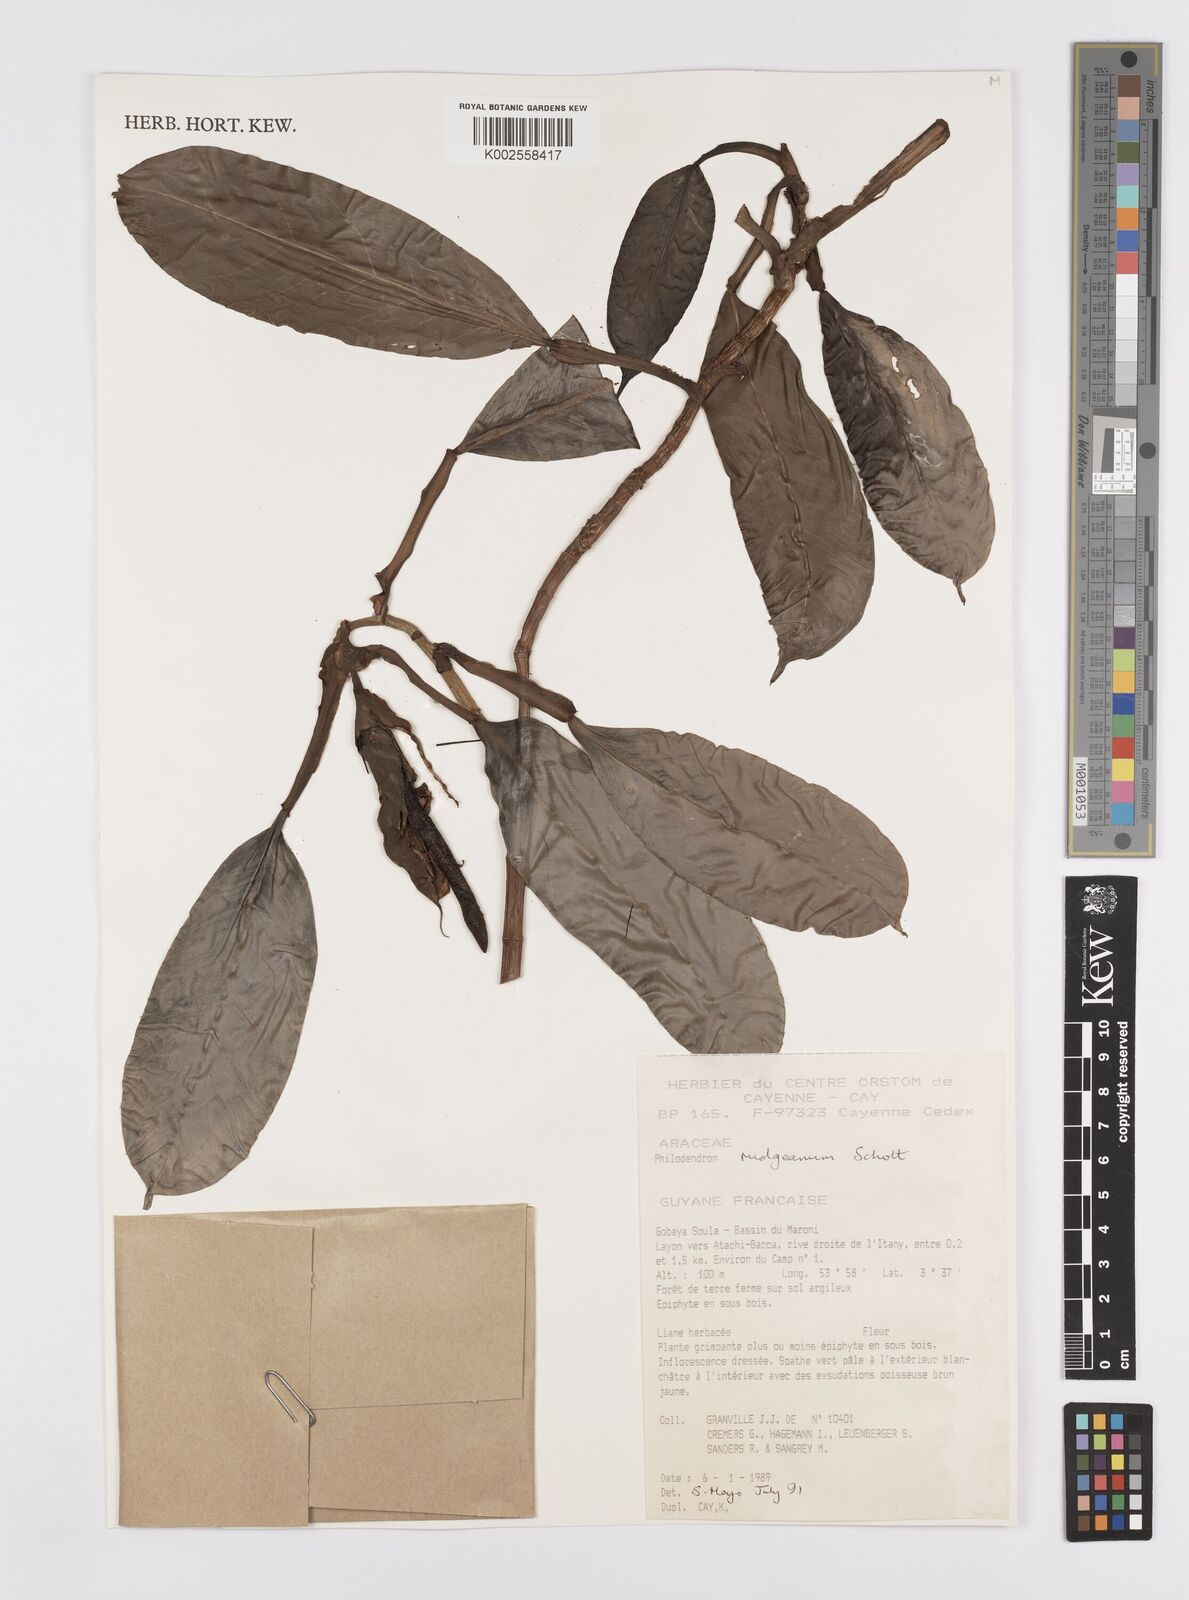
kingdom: Plantae
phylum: Tracheophyta
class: Liliopsida
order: Alismatales
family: Araceae
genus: Philodendron
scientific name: Philodendron rudgeanum
